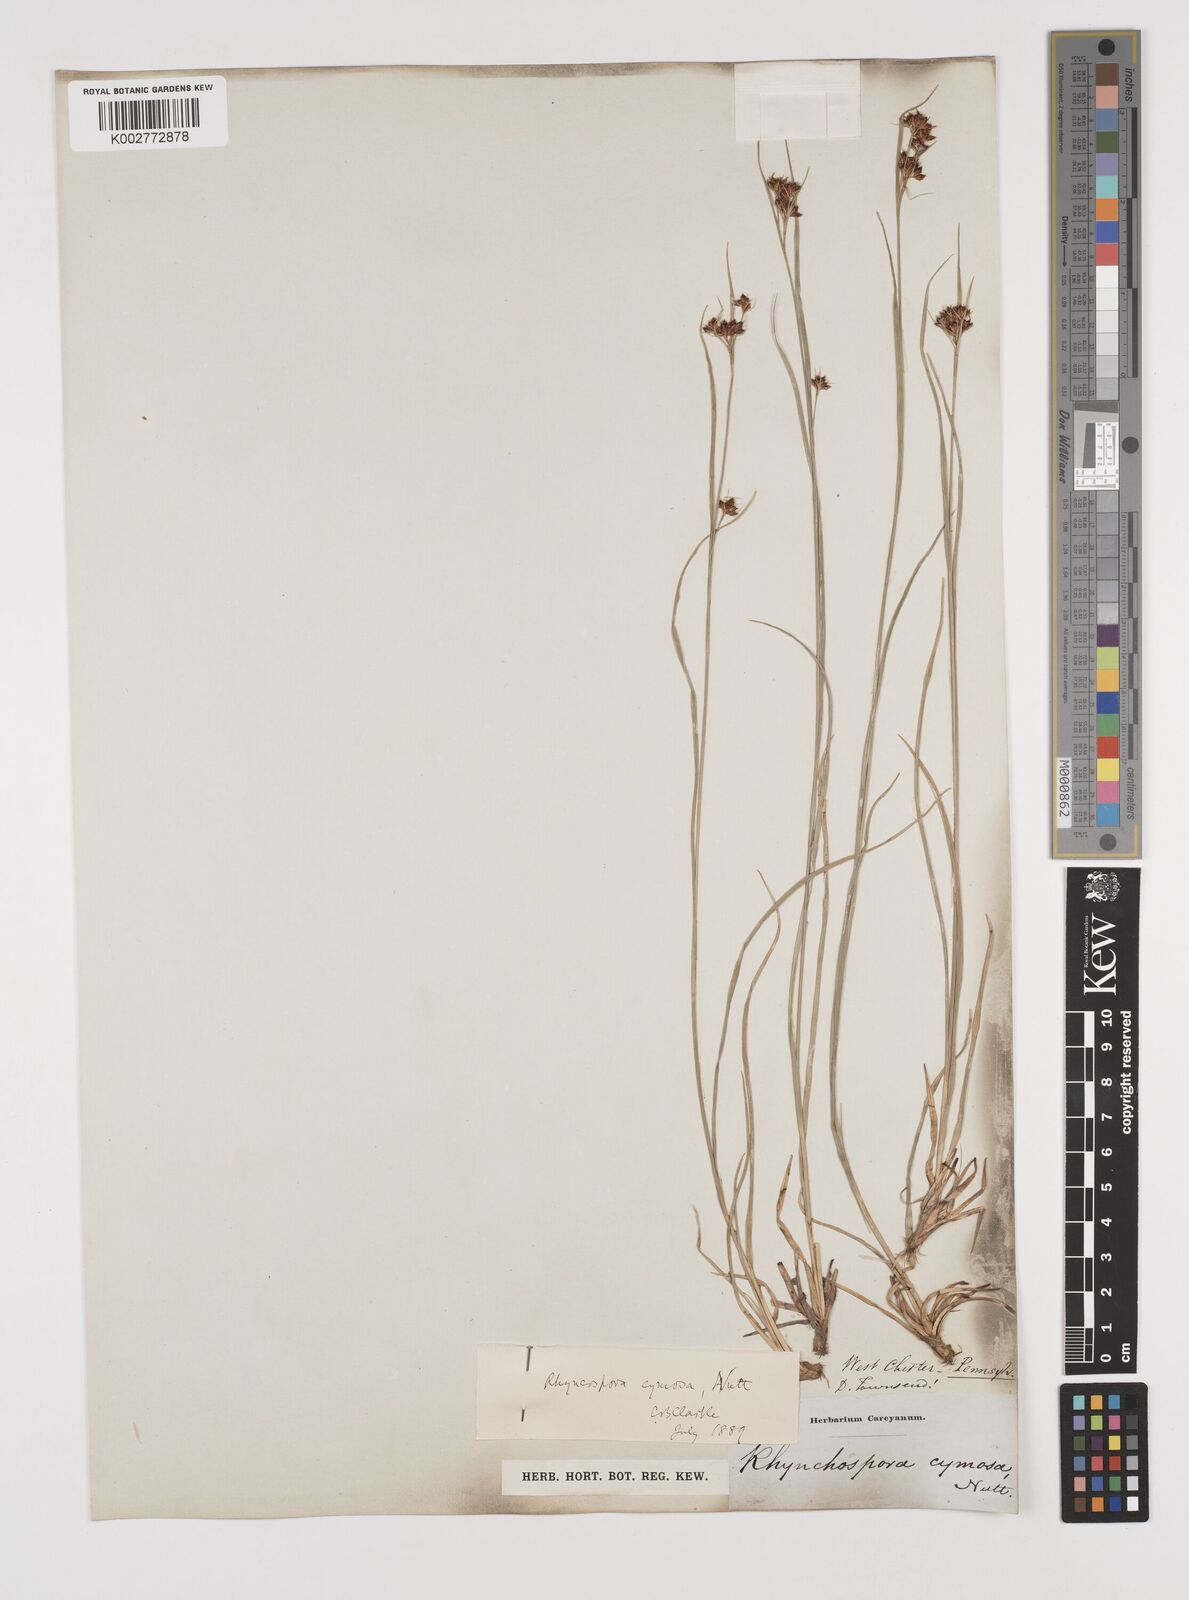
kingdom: Plantae
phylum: Tracheophyta
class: Liliopsida
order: Poales
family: Cyperaceae
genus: Scirpus
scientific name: Scirpus polyphyllus
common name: Leafy bulrush
